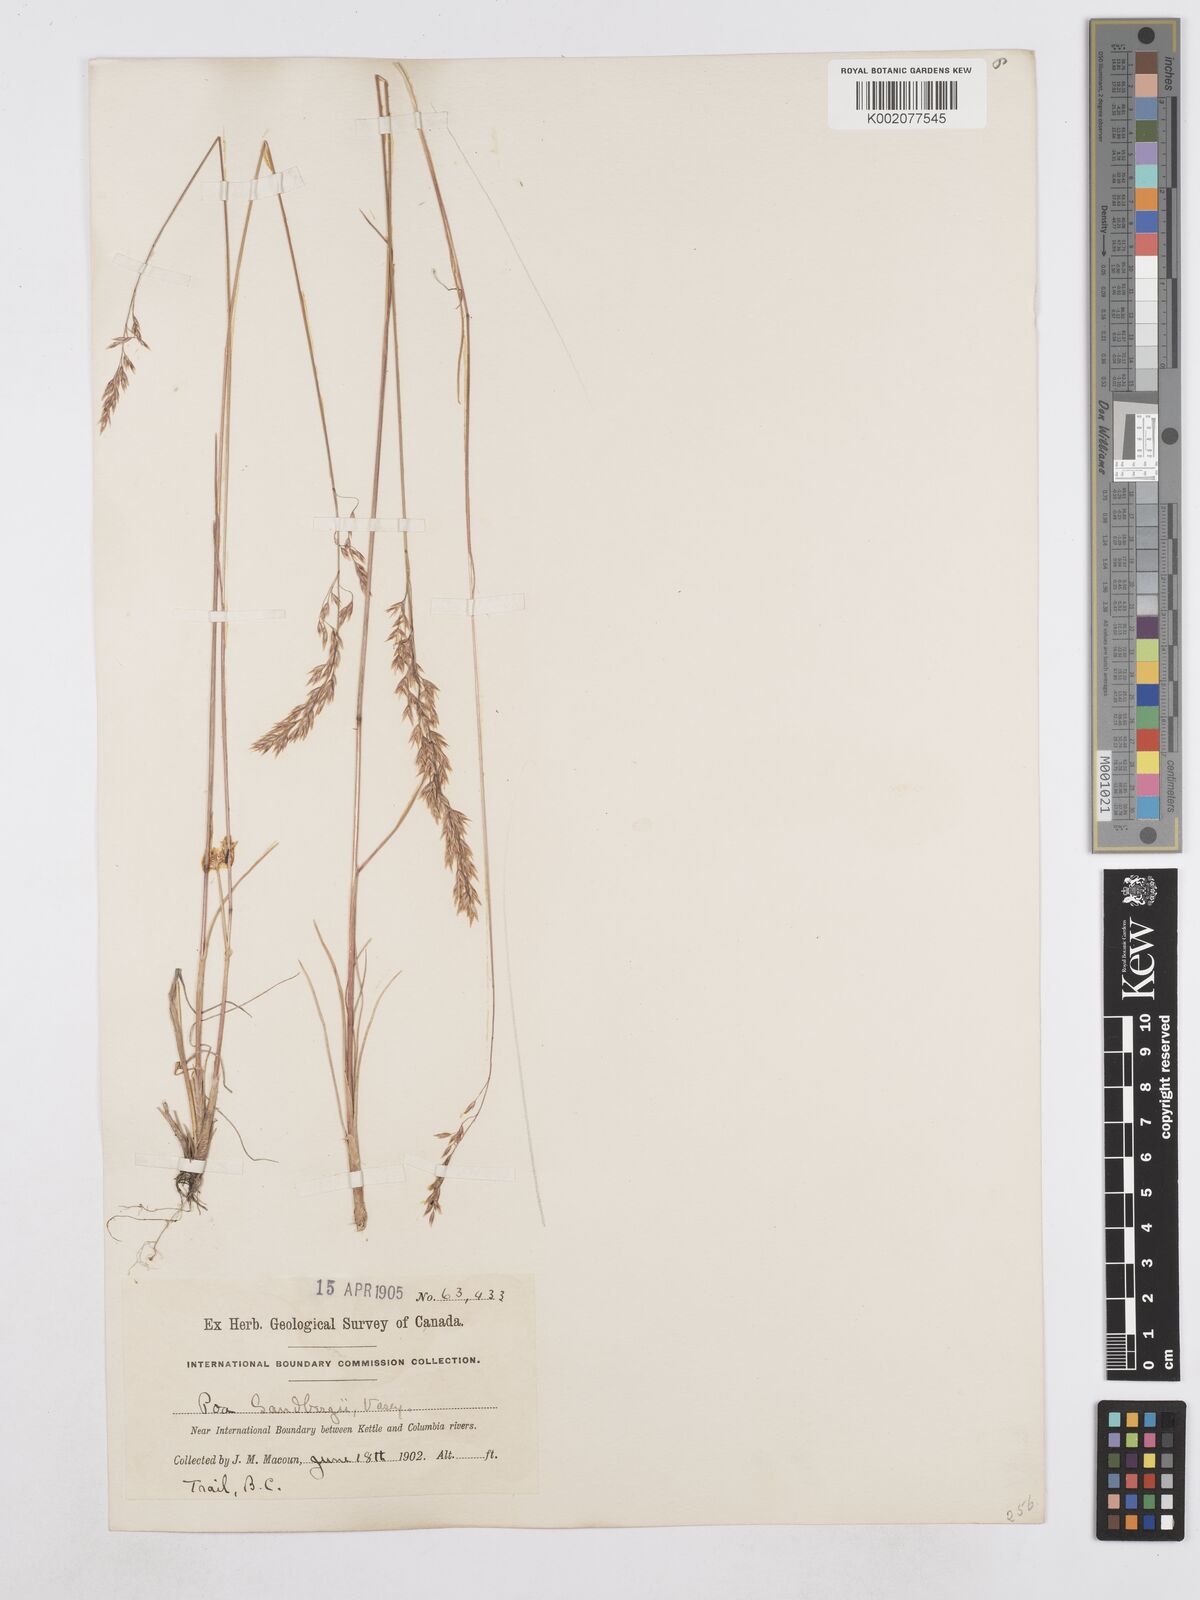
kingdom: Plantae
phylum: Tracheophyta
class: Liliopsida
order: Poales
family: Poaceae
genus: Poa
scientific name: Poa secunda
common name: Sandberg bluegrass
